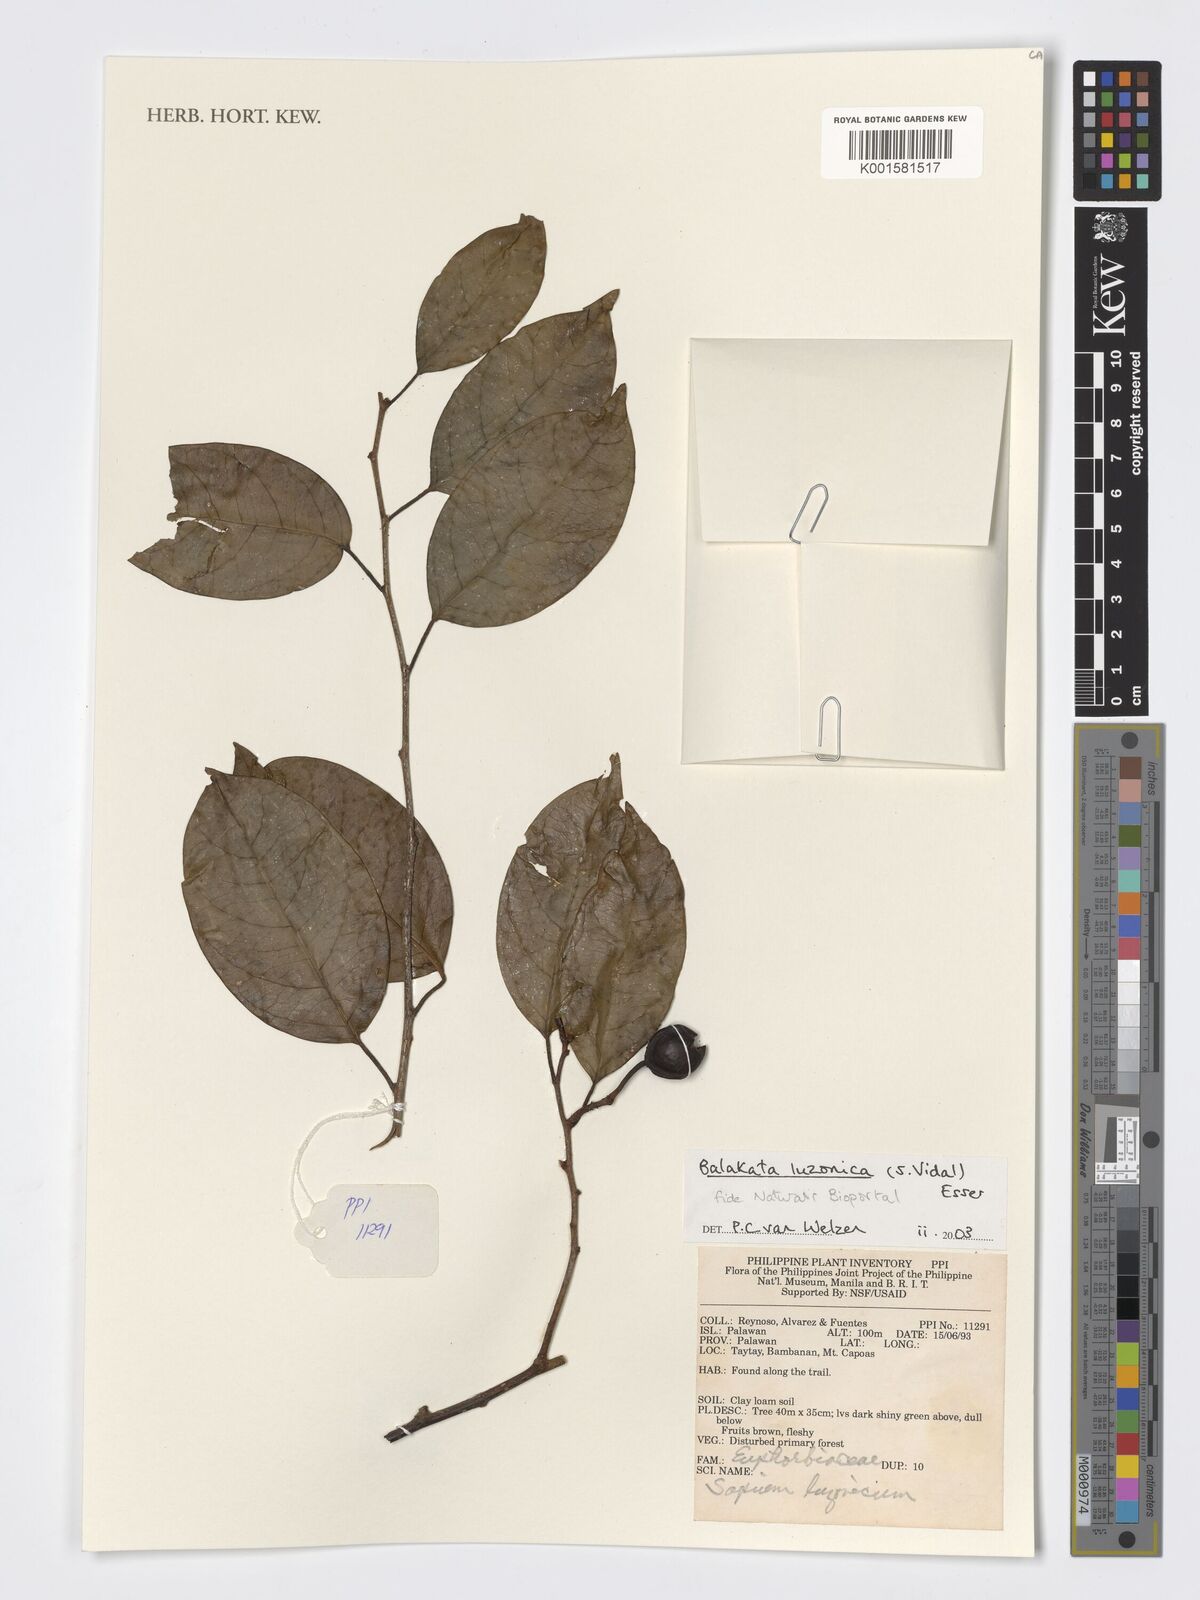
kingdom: Plantae
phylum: Tracheophyta
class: Magnoliopsida
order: Malpighiales
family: Euphorbiaceae
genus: Balakata
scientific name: Balakata luzonica
